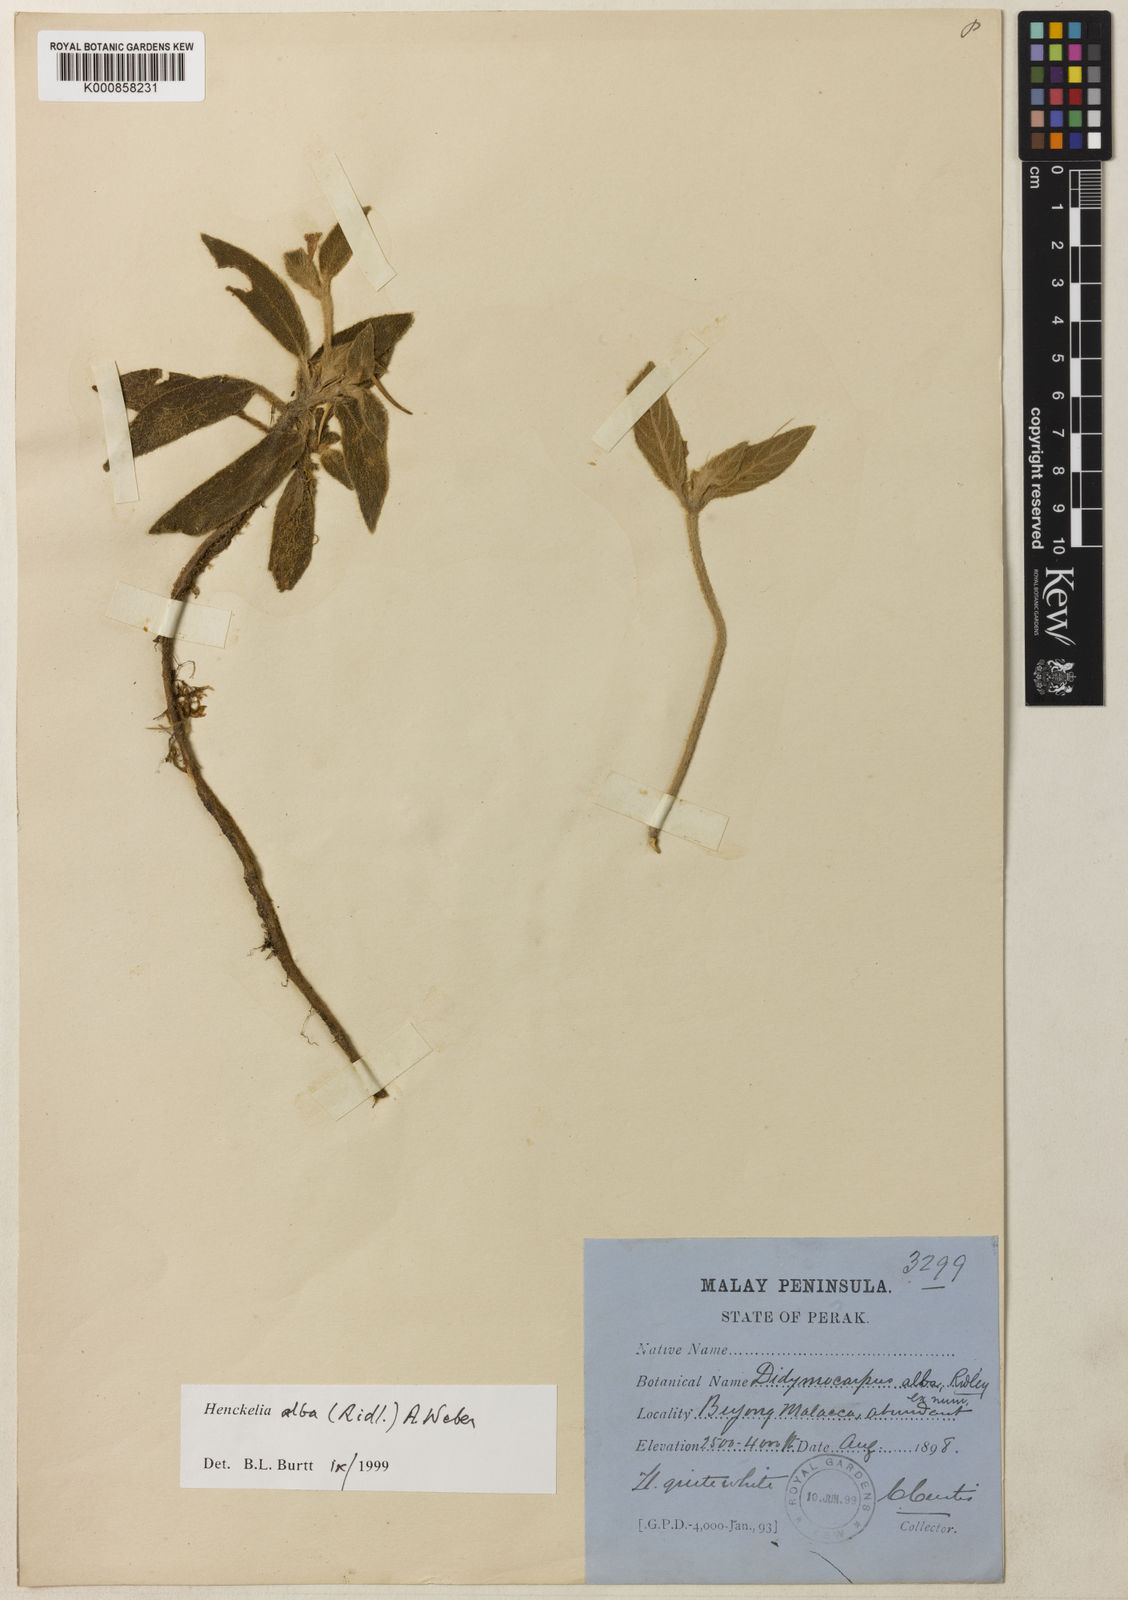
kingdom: Plantae
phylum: Tracheophyta
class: Magnoliopsida
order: Lamiales
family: Gesneriaceae
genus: Codonoboea
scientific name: Codonoboea alba
